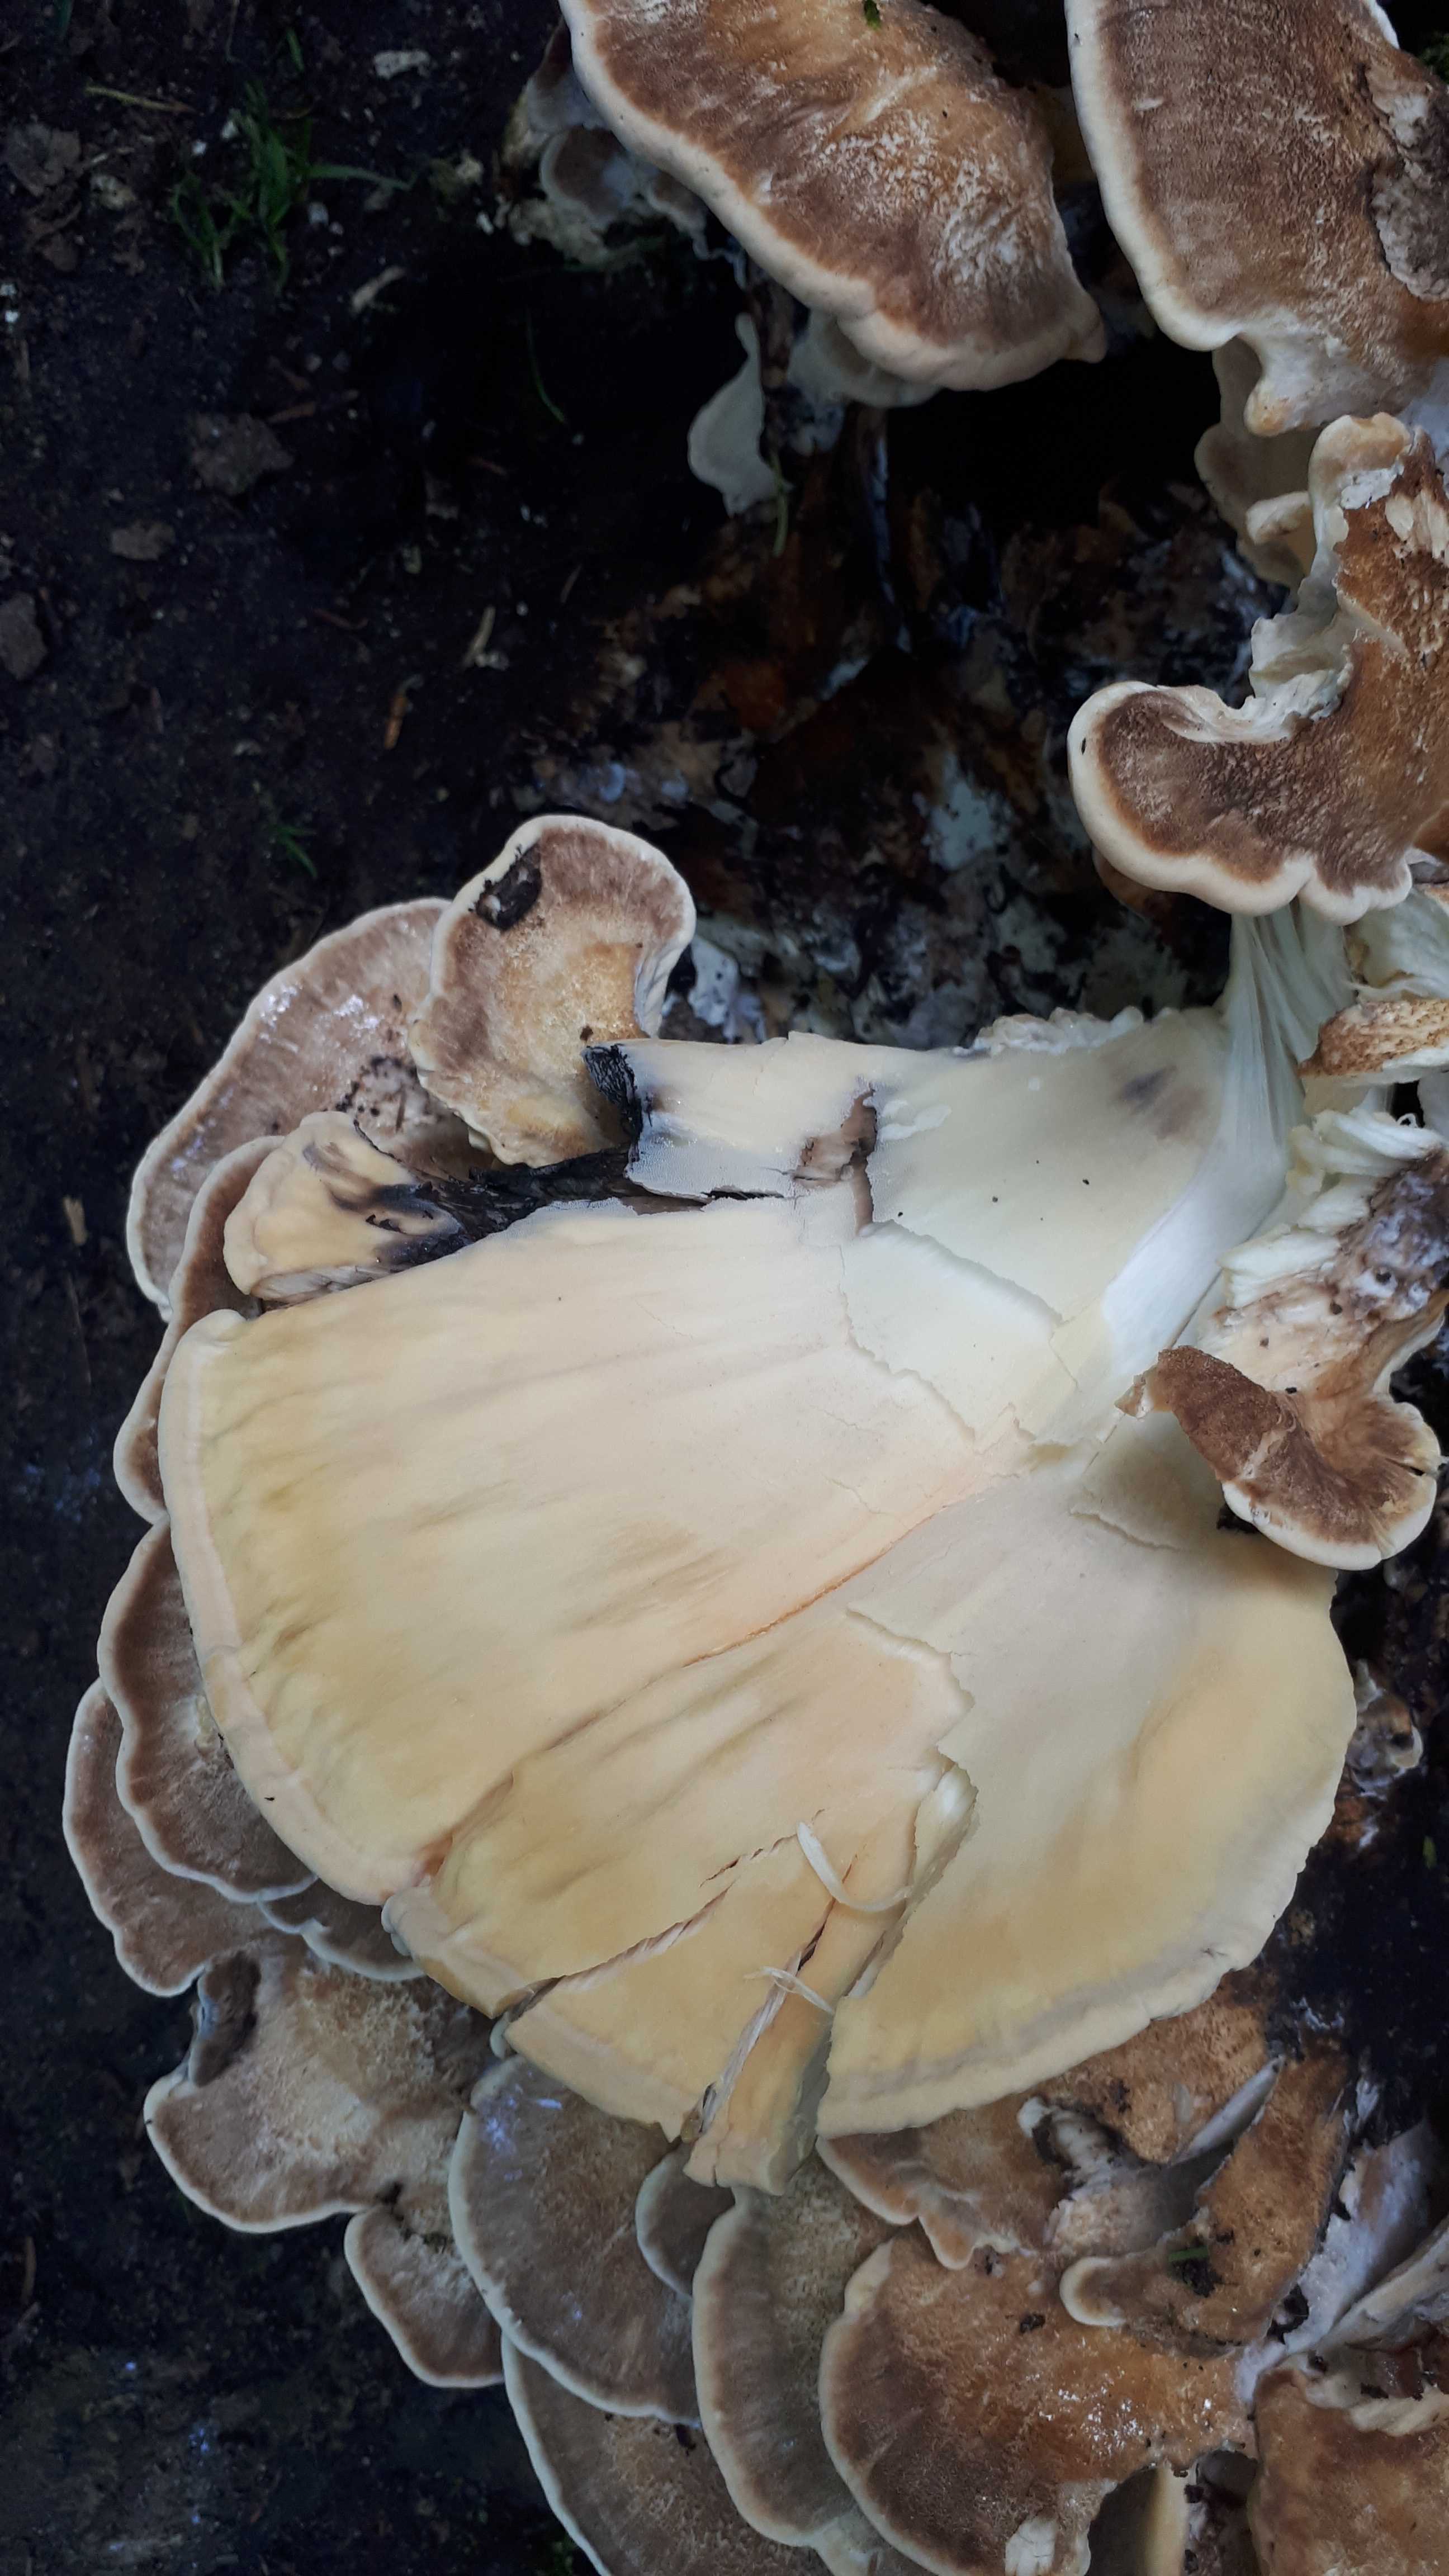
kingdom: Fungi
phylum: Basidiomycota
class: Agaricomycetes
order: Polyporales
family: Meripilaceae
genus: Meripilus
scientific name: Meripilus giganteus
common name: kæmpeporesvamp
